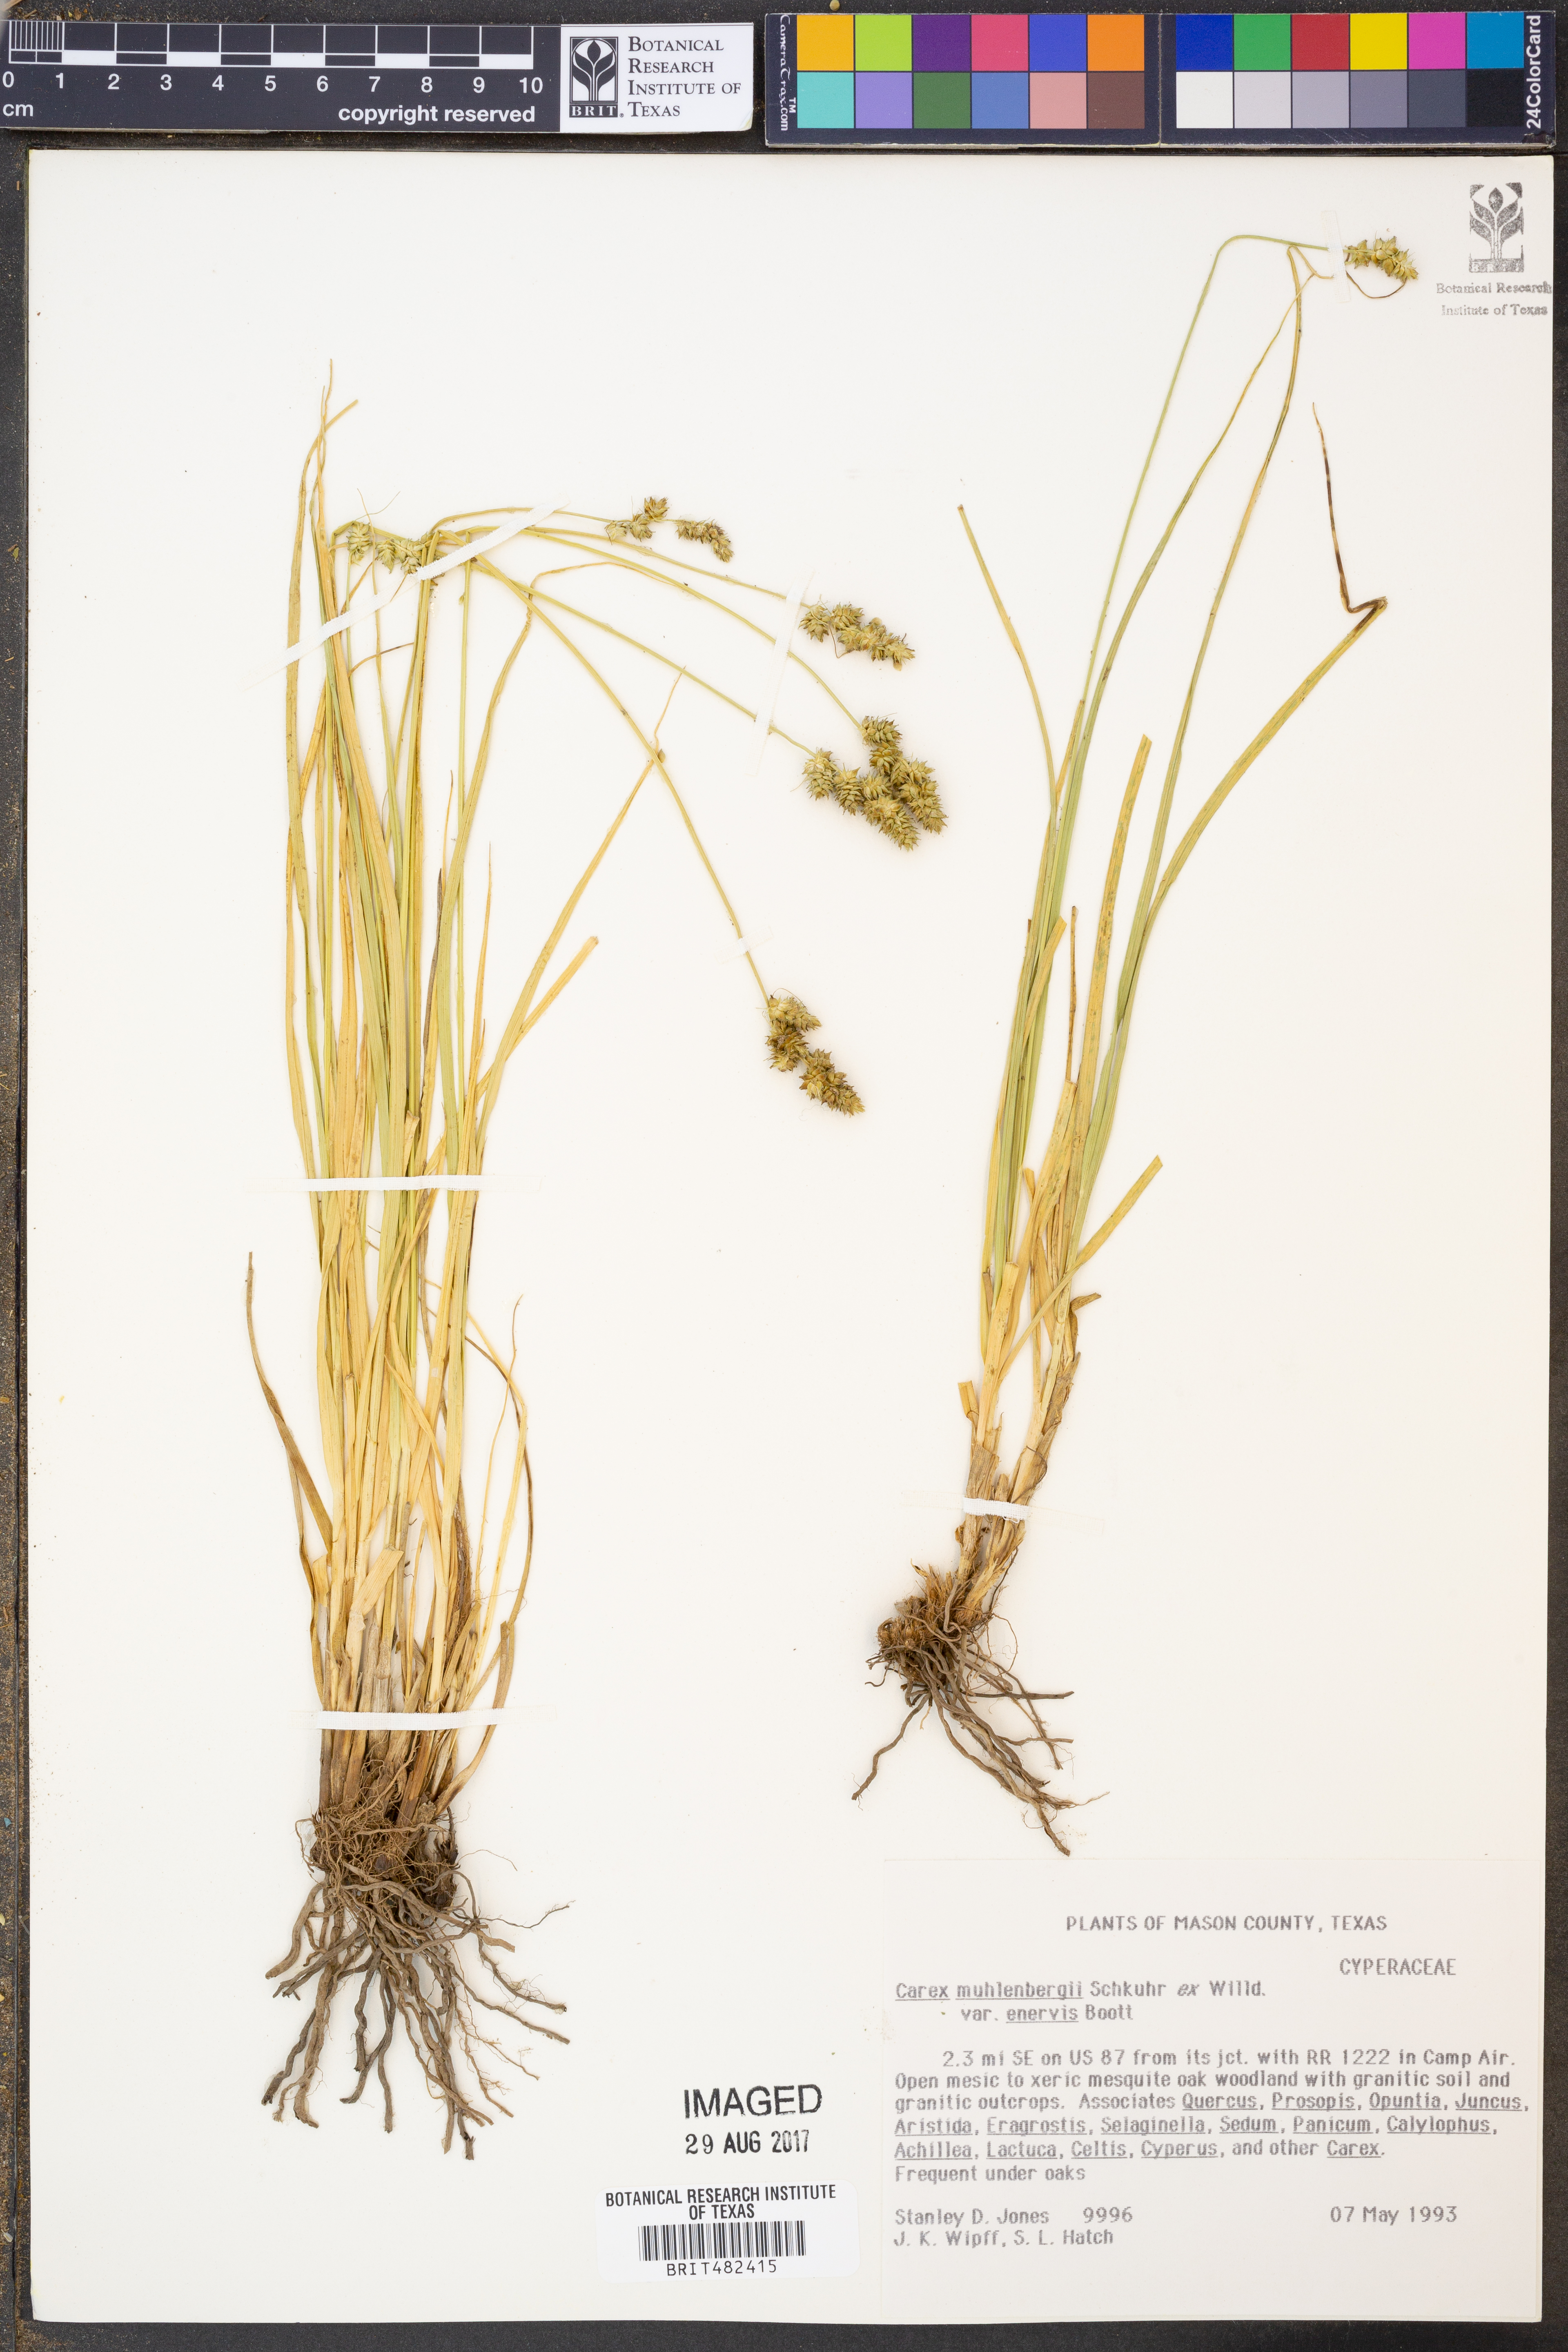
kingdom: Plantae
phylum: Tracheophyta
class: Liliopsida
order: Poales
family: Cyperaceae
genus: Carex
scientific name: Carex vulpinoidea
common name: American fox-sedge
